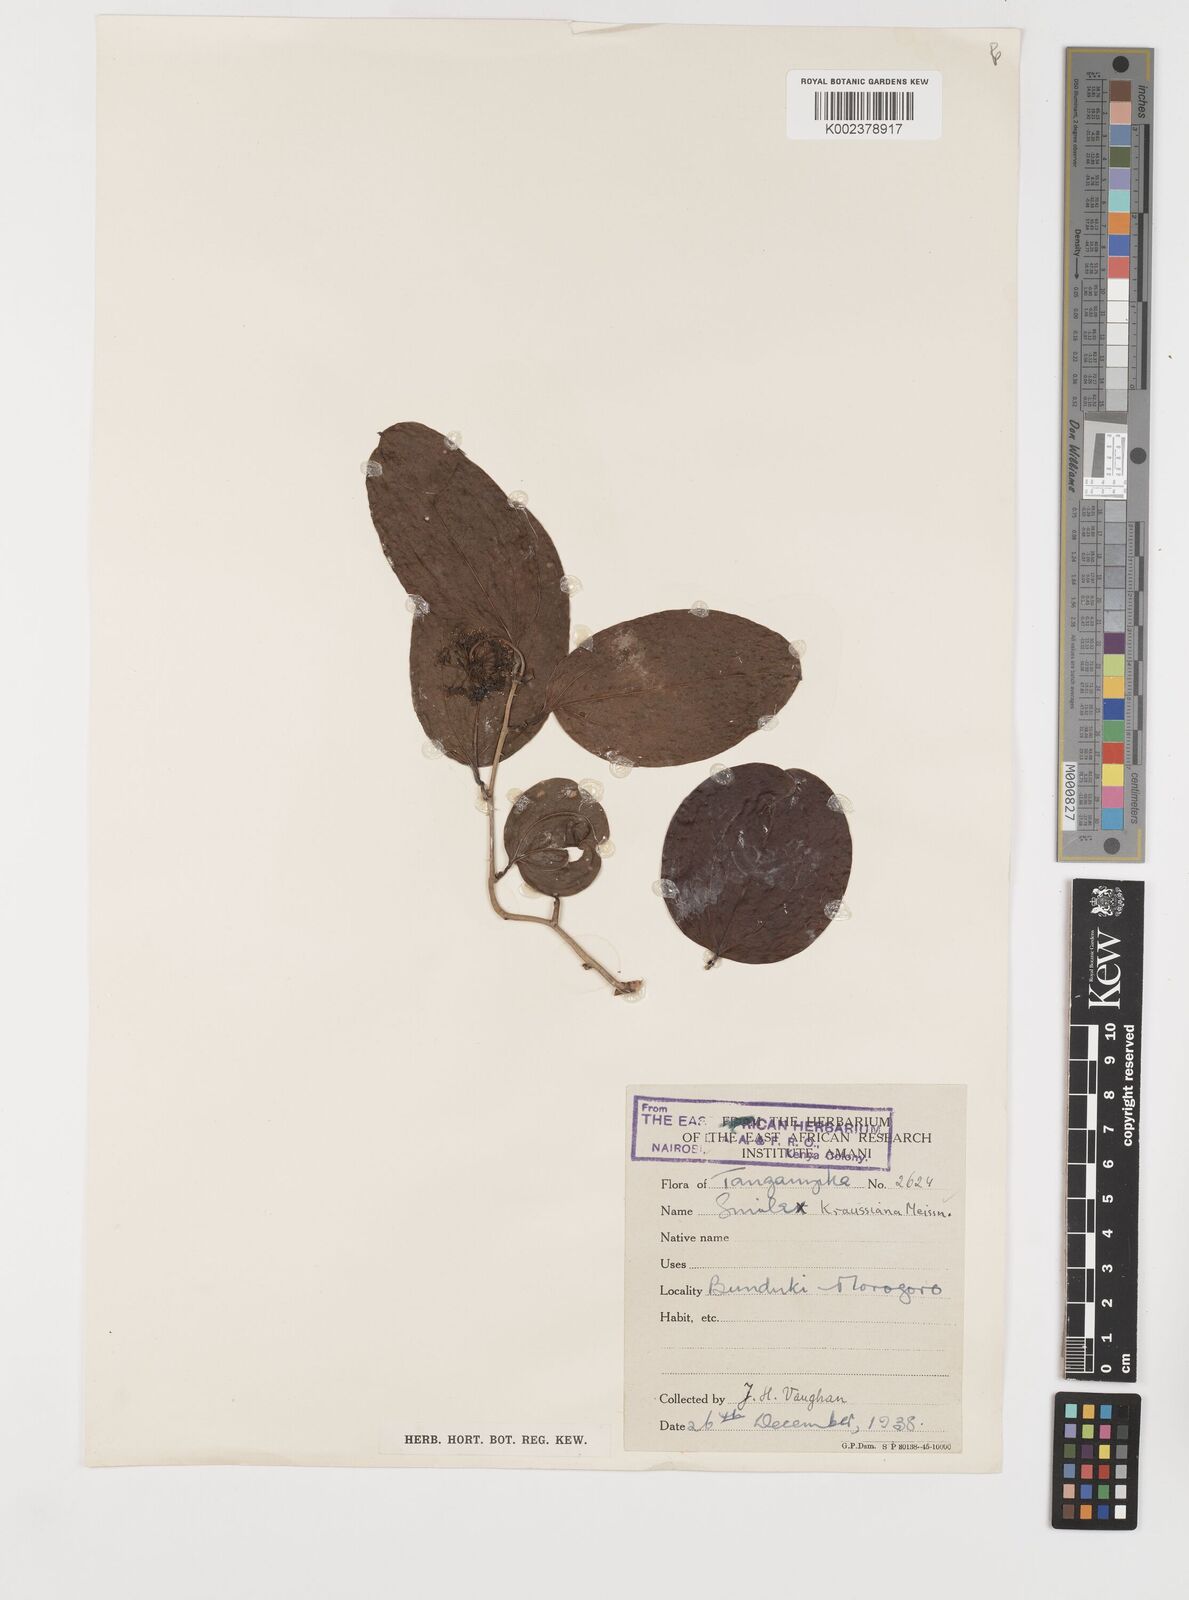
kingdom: Plantae
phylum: Tracheophyta
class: Liliopsida
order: Liliales
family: Smilacaceae
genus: Smilax
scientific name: Smilax anceps
